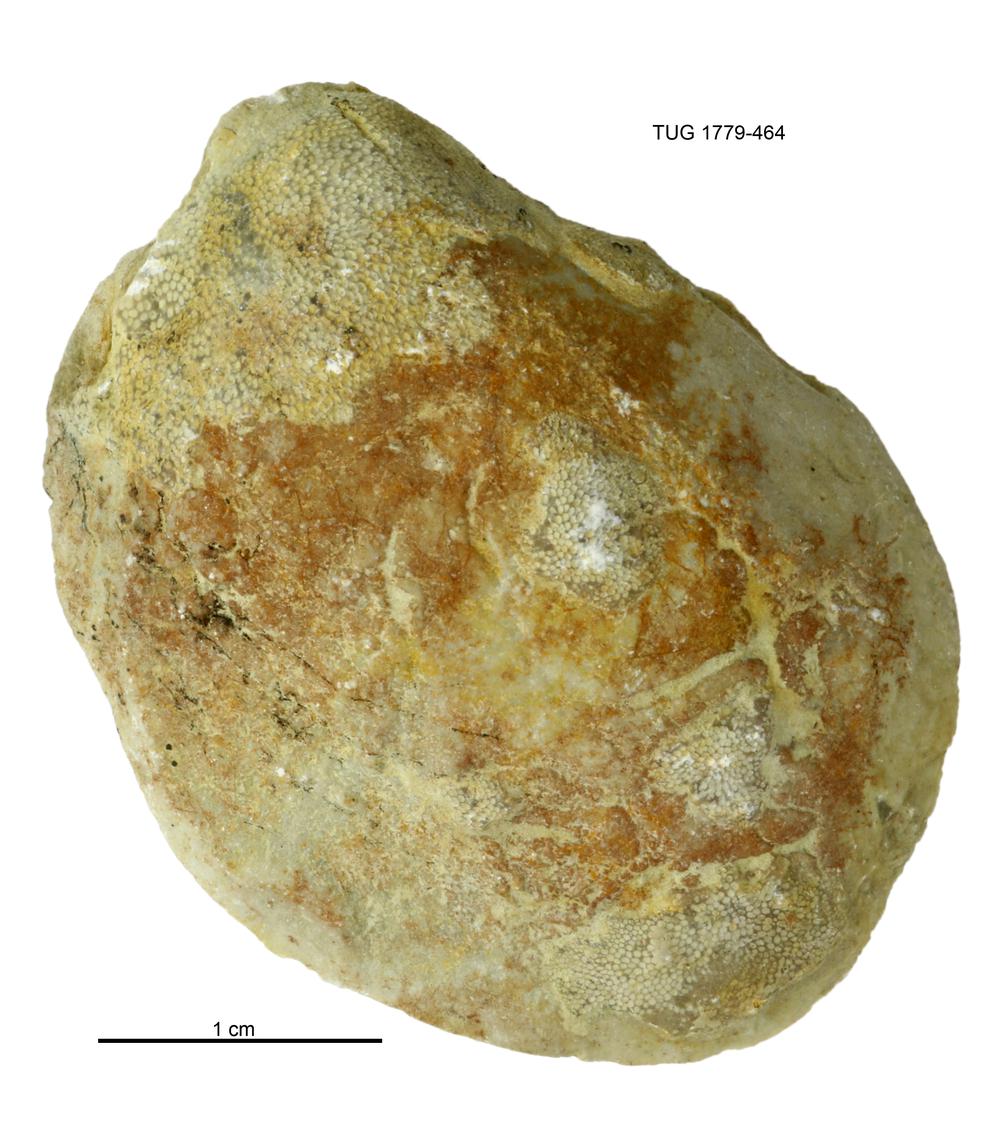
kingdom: Animalia
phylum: Mollusca
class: Bivalvia
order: Modiomorphida
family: Modiomorphidae
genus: Modiolopsis
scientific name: Modiolopsis
